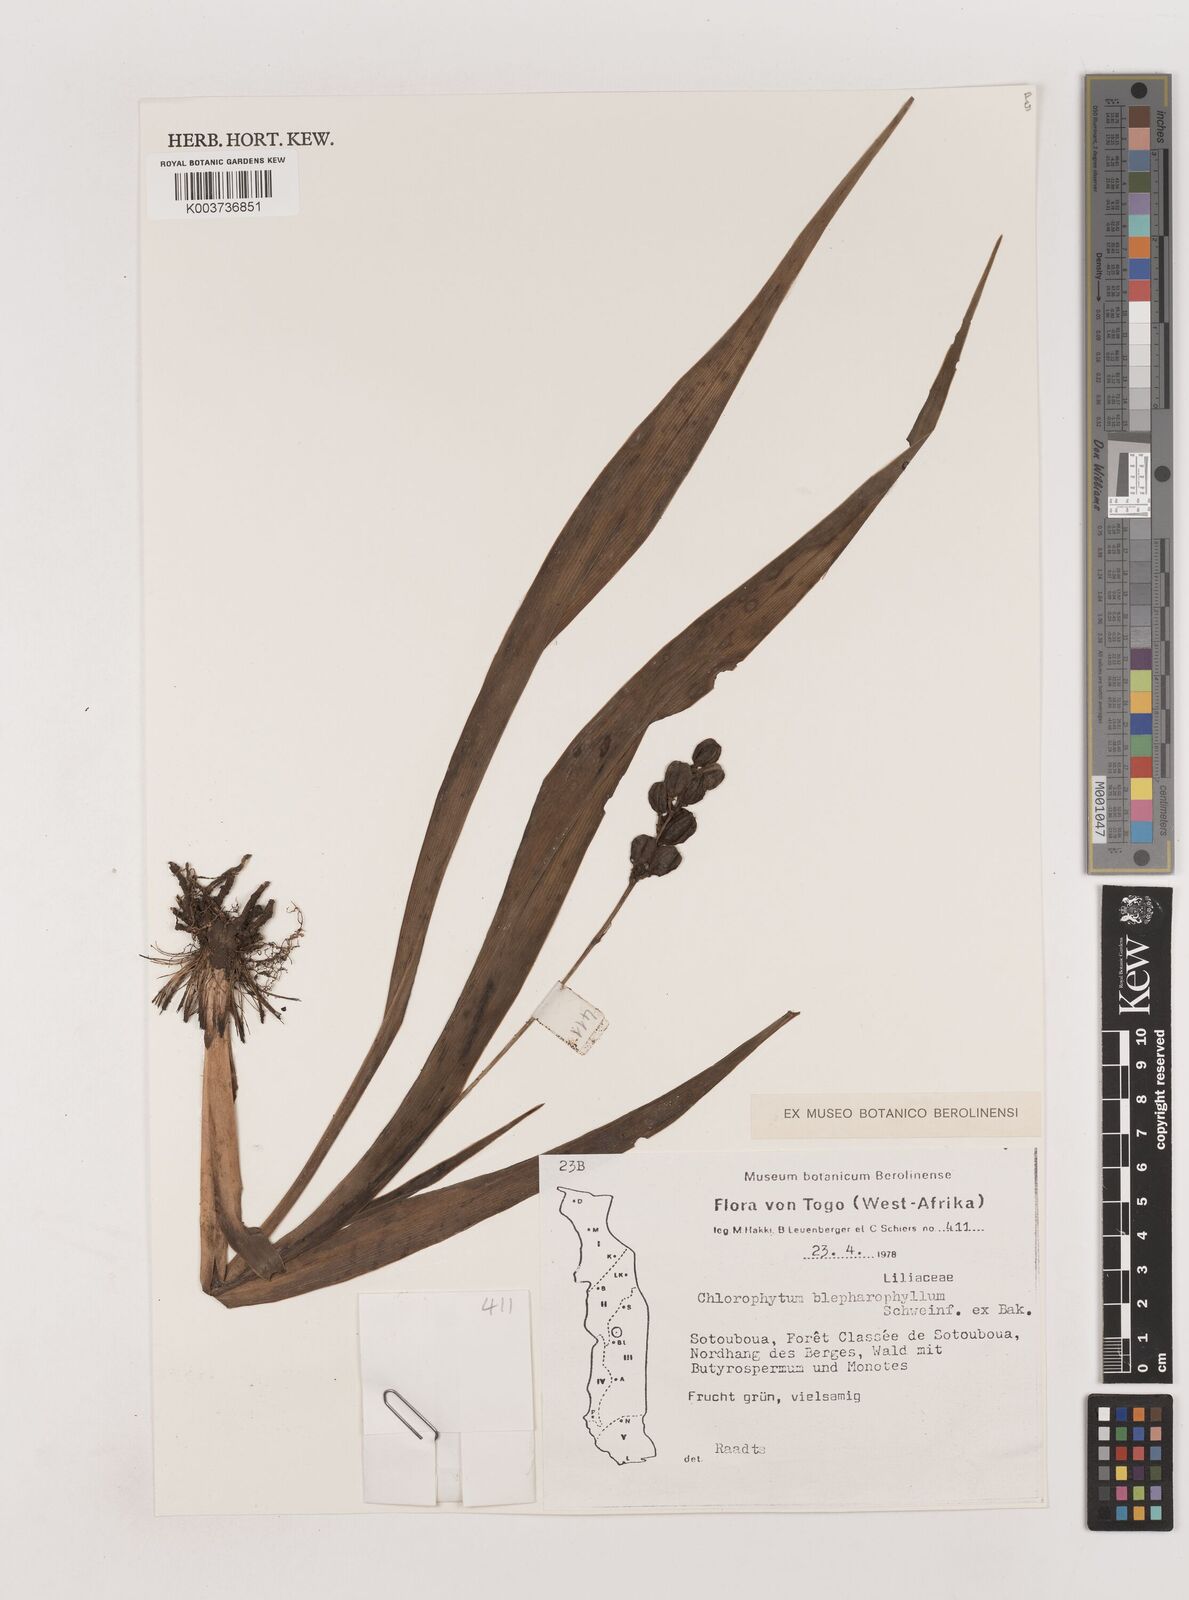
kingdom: Plantae
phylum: Tracheophyta
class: Liliopsida
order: Asparagales
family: Asparagaceae
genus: Chlorophytum
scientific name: Chlorophytum blepharophyllum
